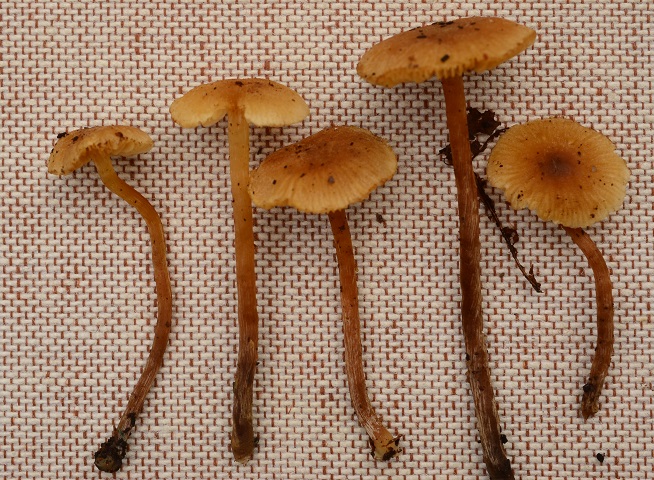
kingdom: Fungi
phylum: Basidiomycota
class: Agaricomycetes
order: Agaricales
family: Hymenogastraceae
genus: Naucoria
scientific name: Naucoria striatula
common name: stribet knaphat
